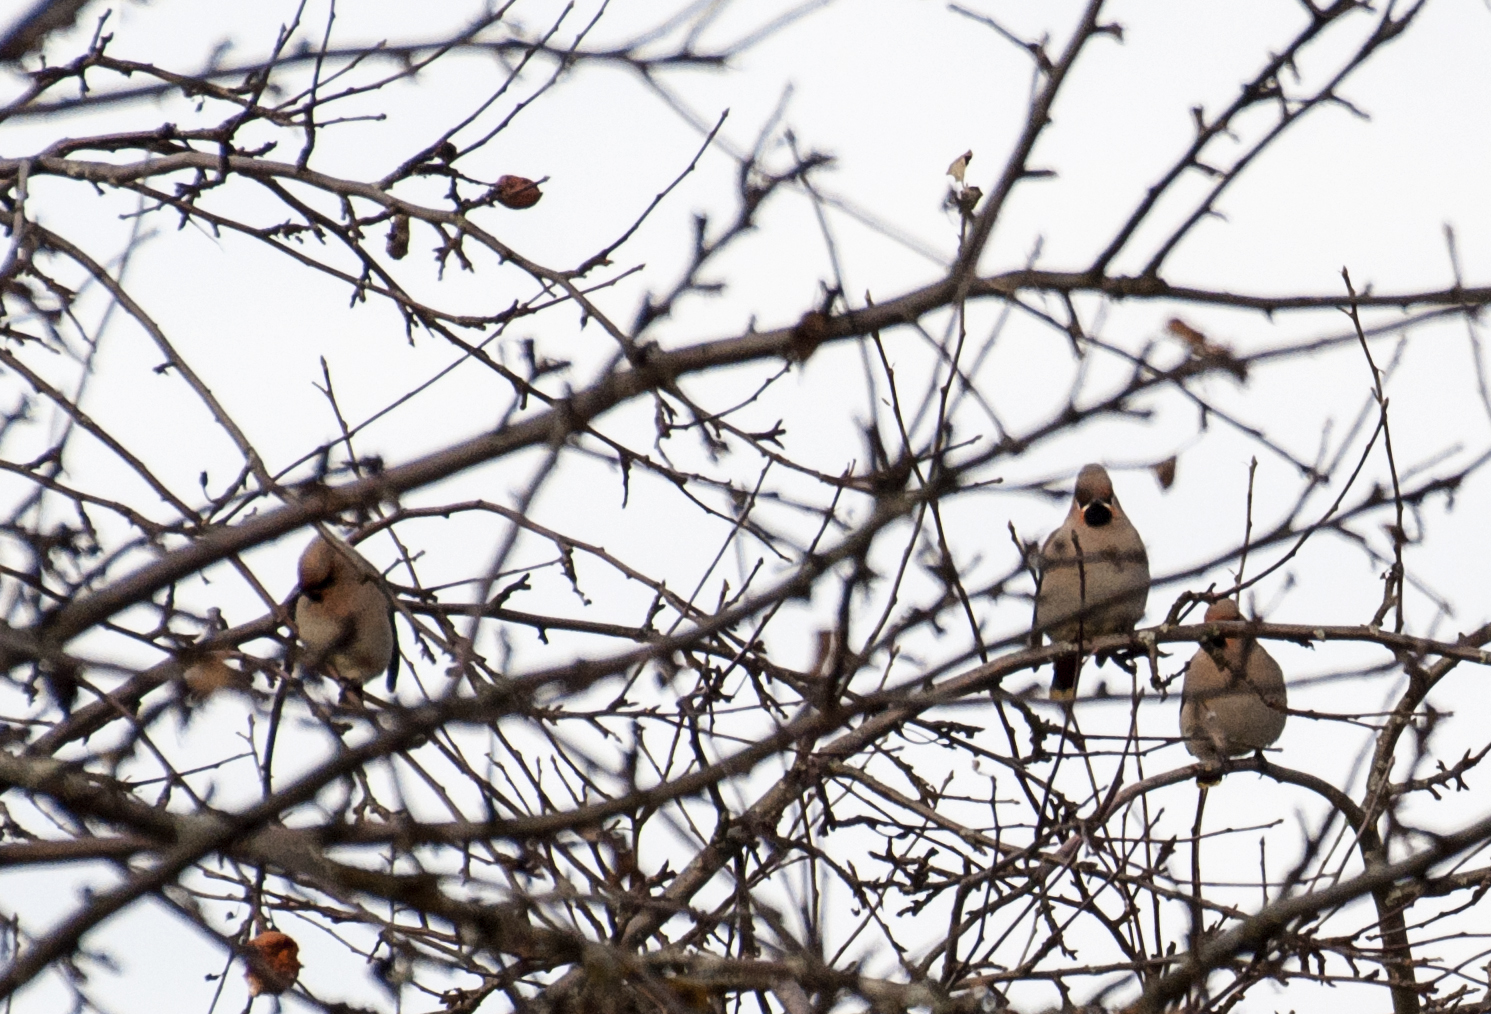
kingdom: Animalia
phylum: Chordata
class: Aves
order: Passeriformes
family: Bombycillidae
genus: Bombycilla
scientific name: Bombycilla garrulus
